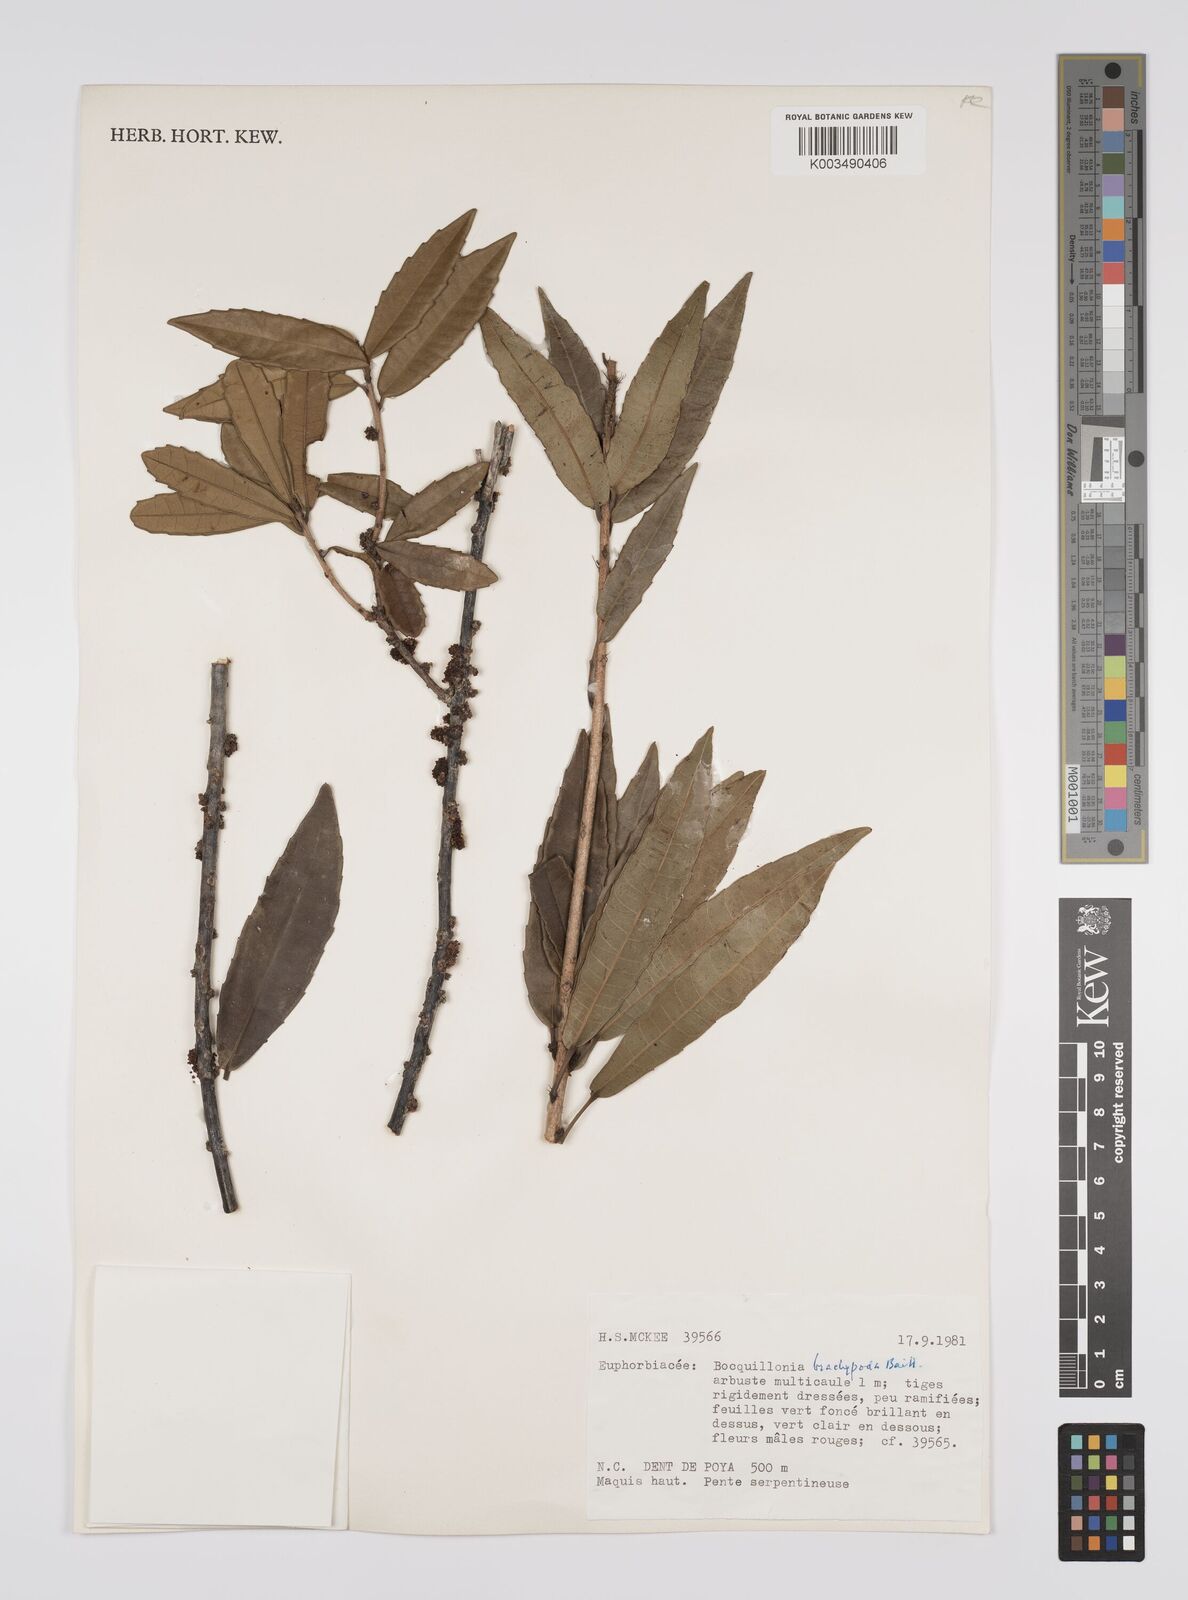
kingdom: Plantae
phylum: Tracheophyta
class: Magnoliopsida
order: Malpighiales
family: Euphorbiaceae
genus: Bocquillonia
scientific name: Bocquillonia brachypoda
